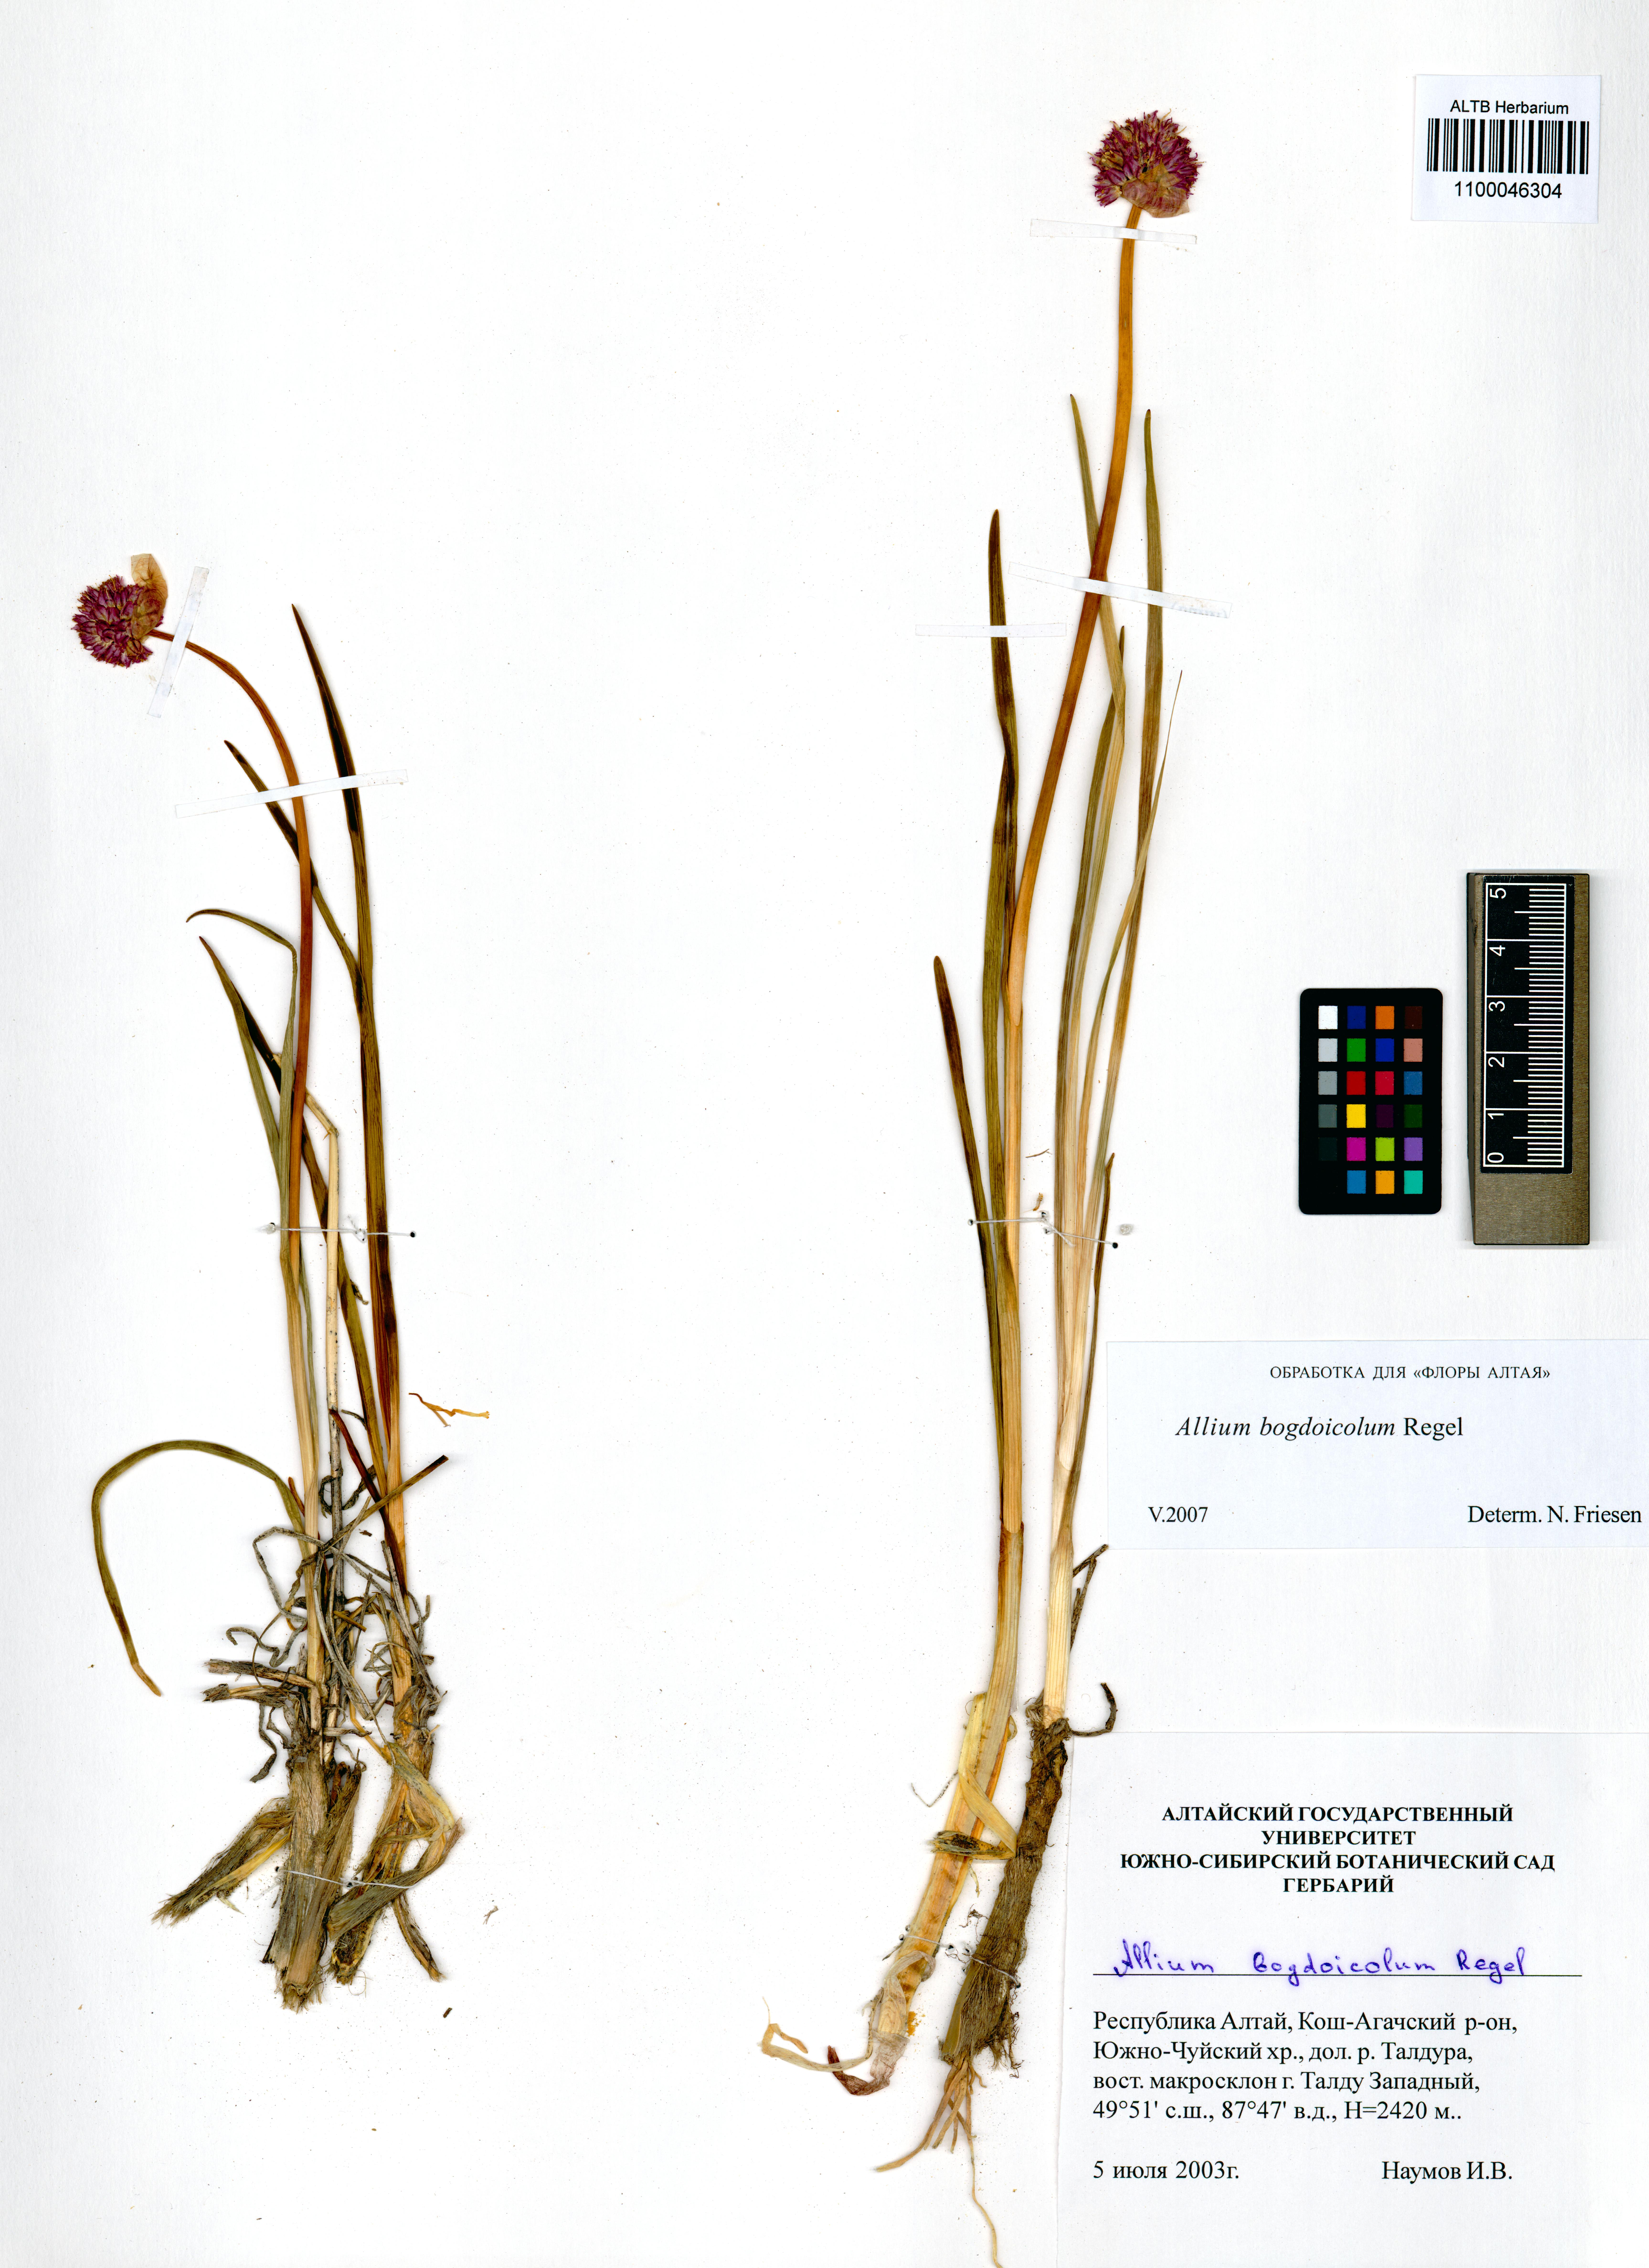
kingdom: Plantae
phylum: Tracheophyta
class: Liliopsida
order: Asparagales
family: Amaryllidaceae
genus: Allium
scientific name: Allium schrenkii
